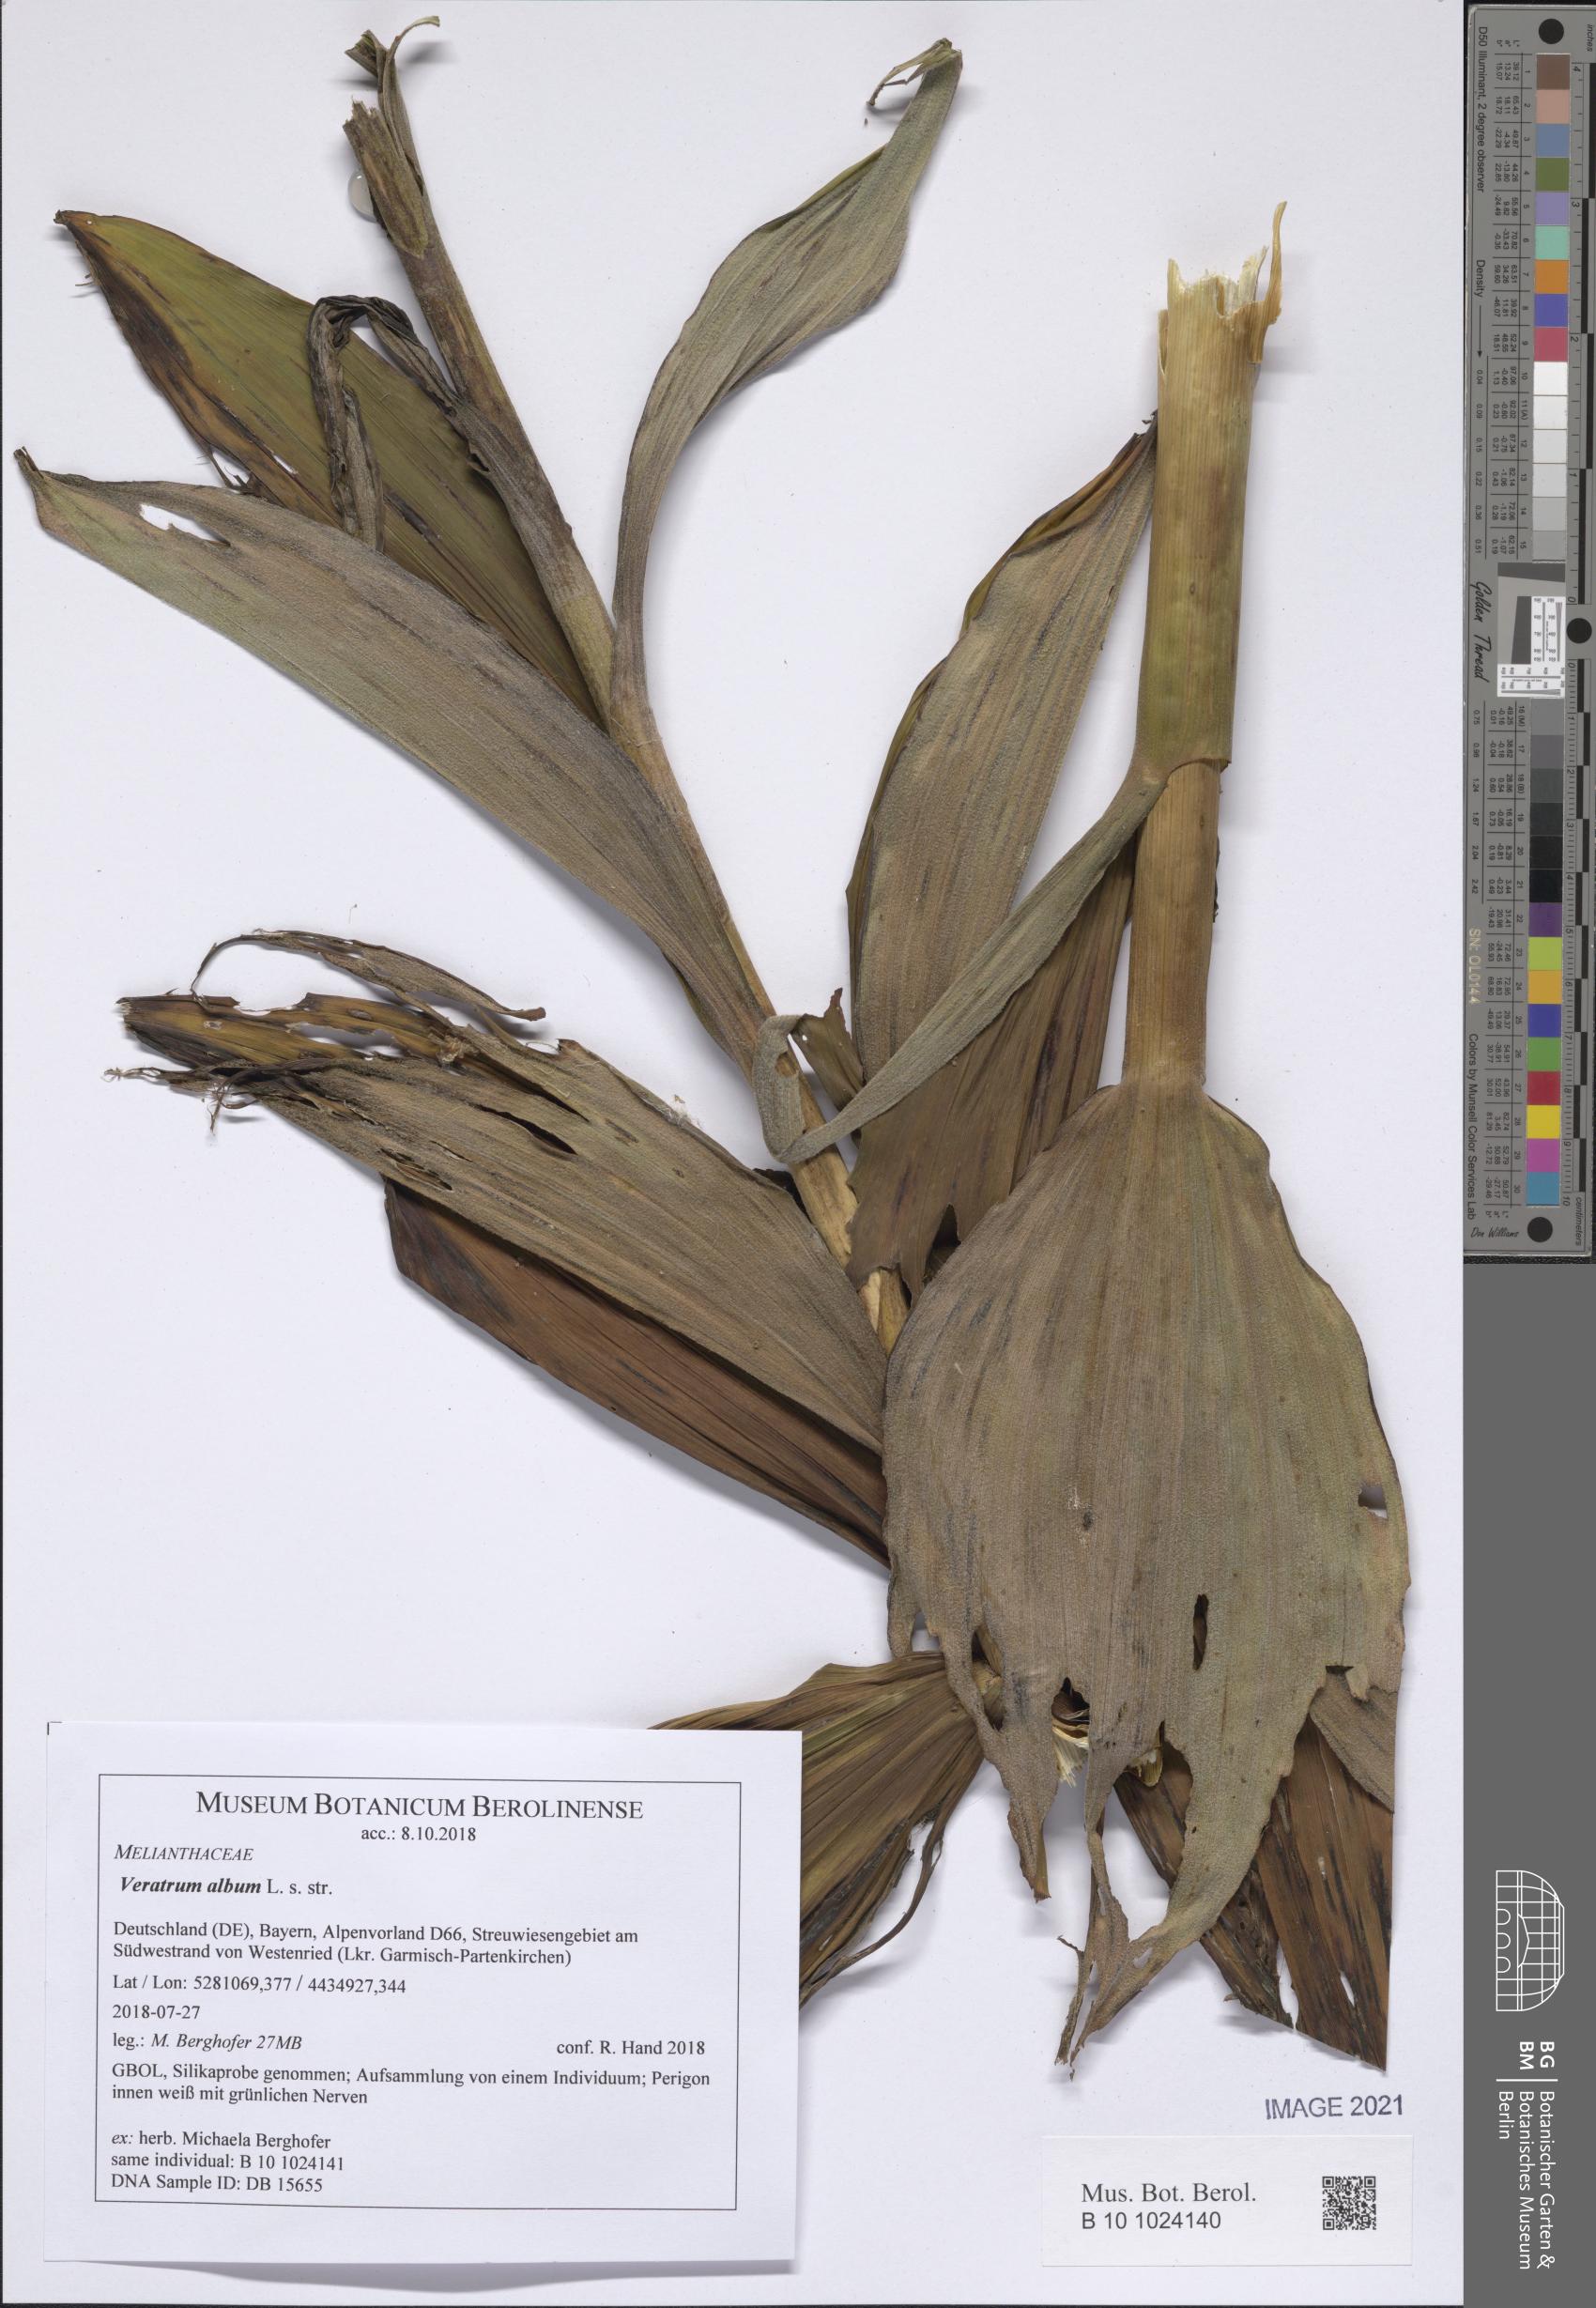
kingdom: Plantae
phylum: Tracheophyta
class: Liliopsida
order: Liliales
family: Melanthiaceae
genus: Veratrum
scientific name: Veratrum album
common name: White veratrum
